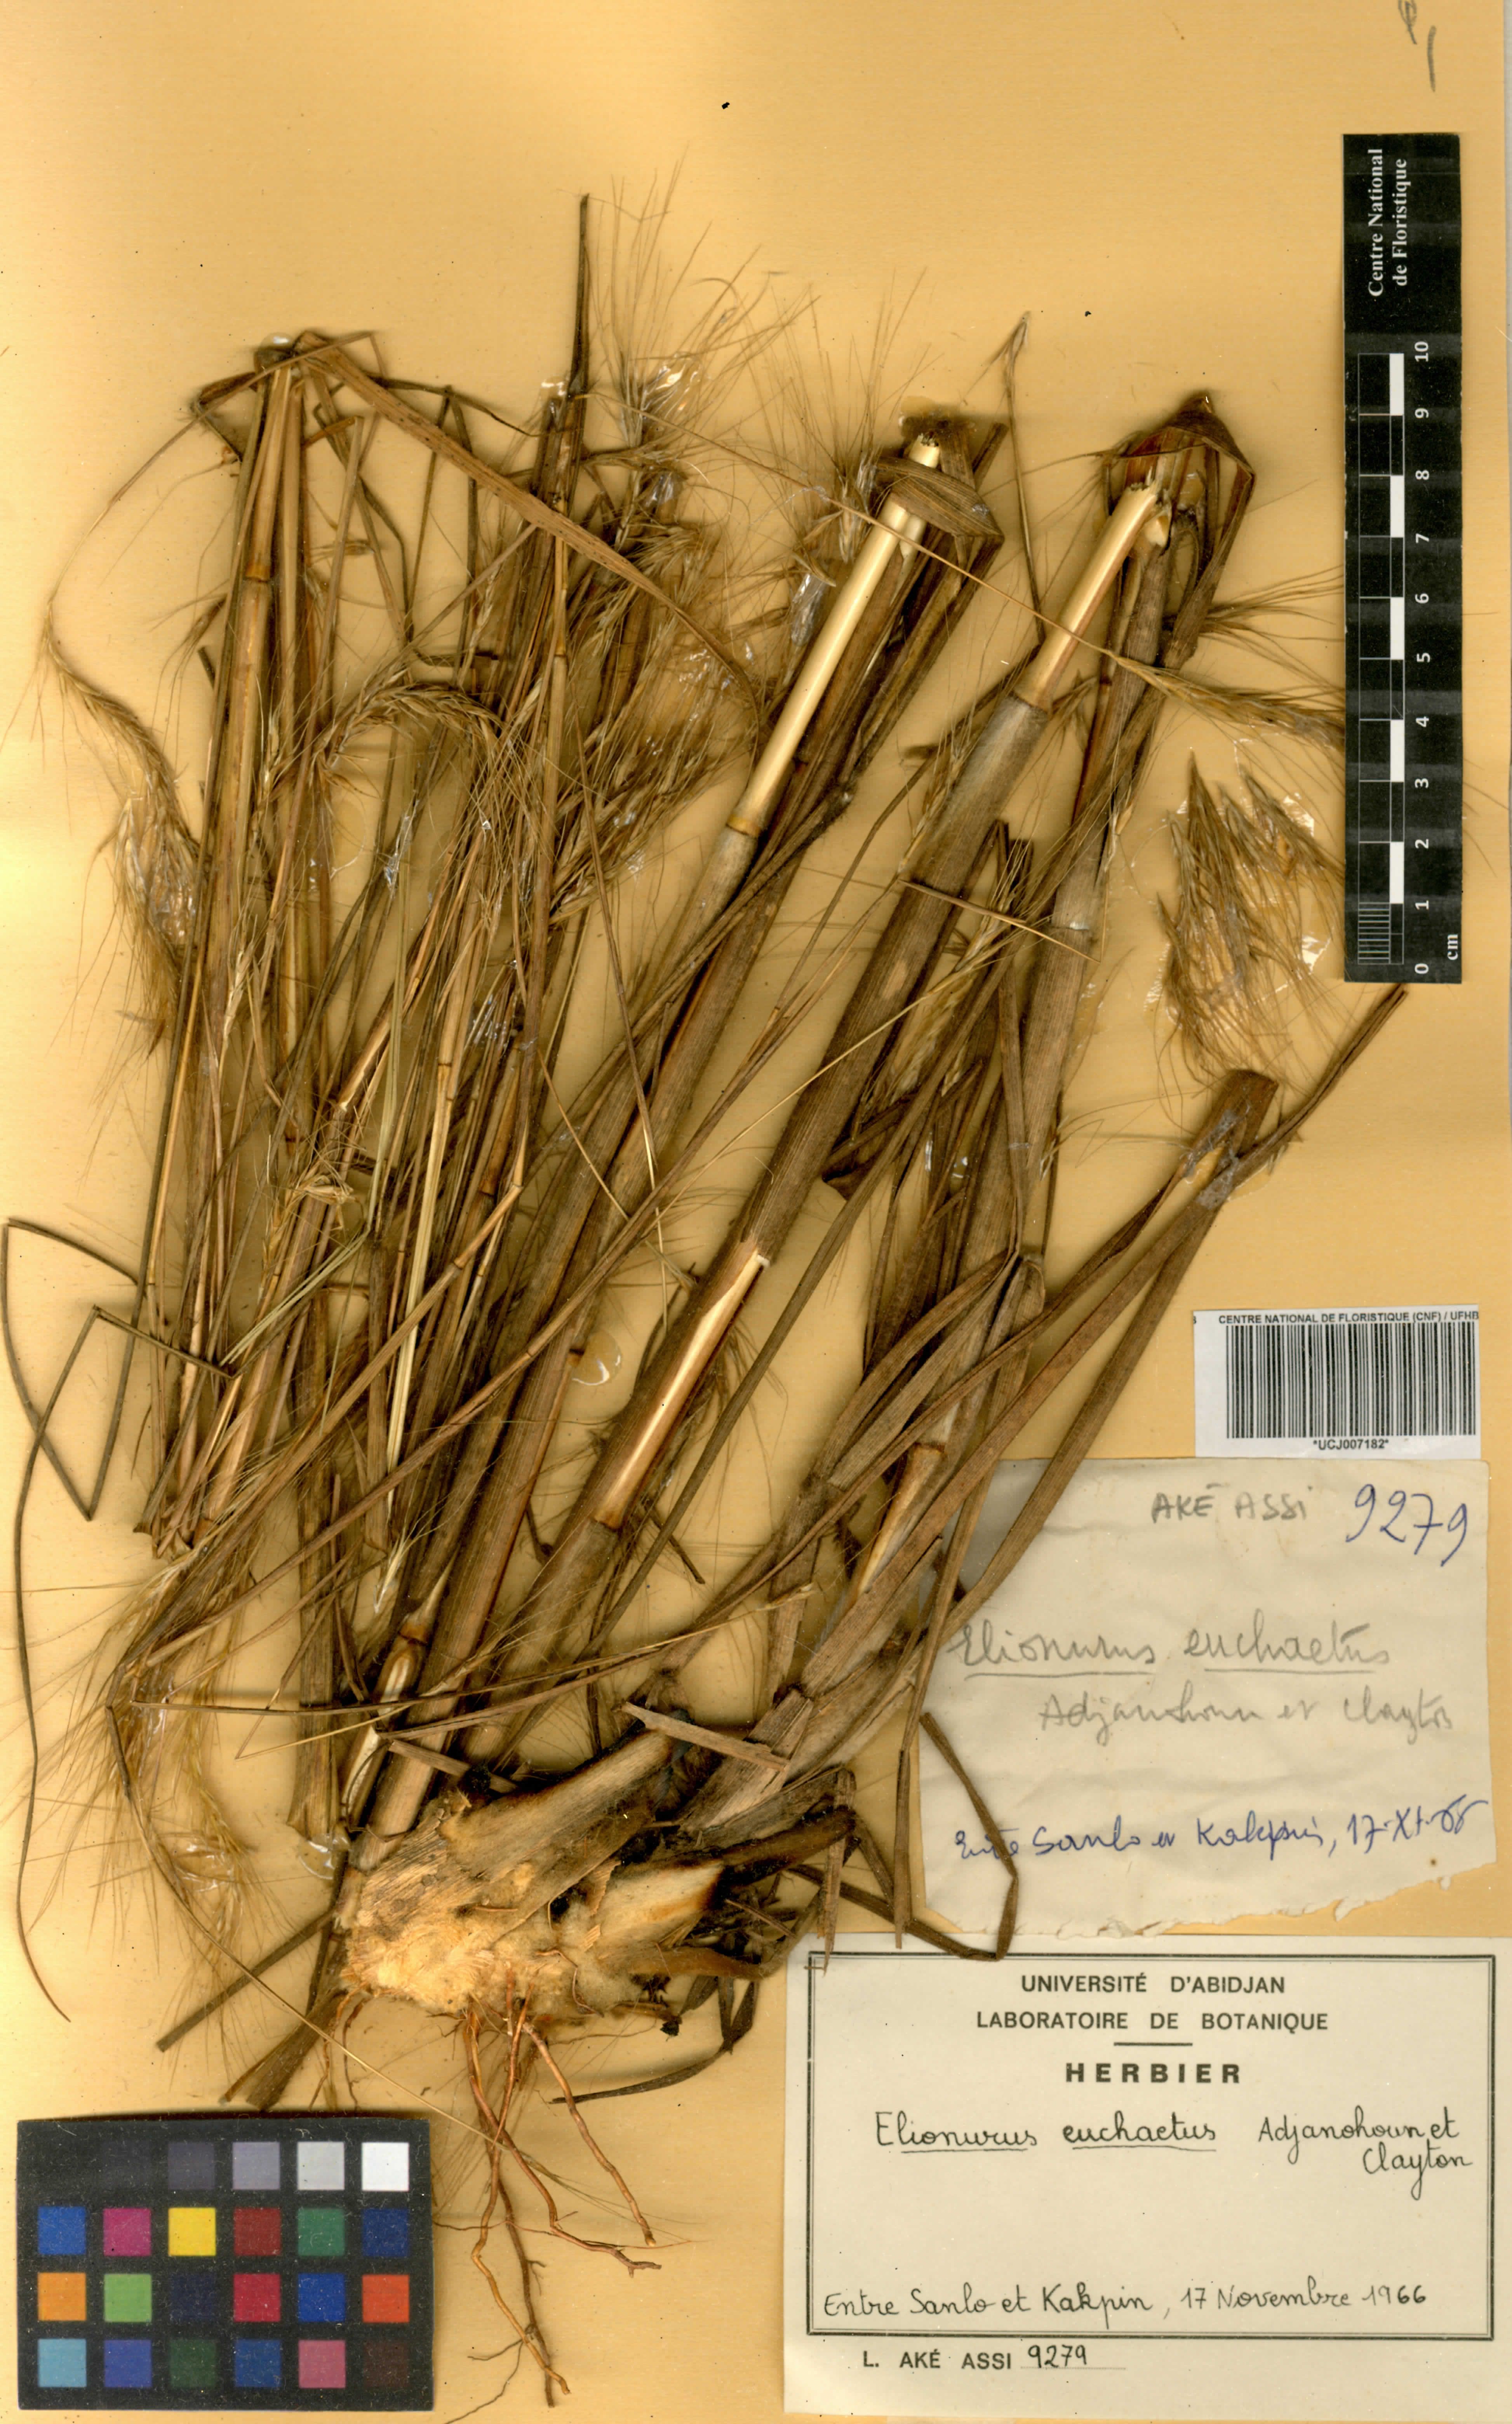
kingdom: Plantae
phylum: Tracheophyta
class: Liliopsida
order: Poales
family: Poaceae
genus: Elionurus
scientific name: Elionurus euchaetus
